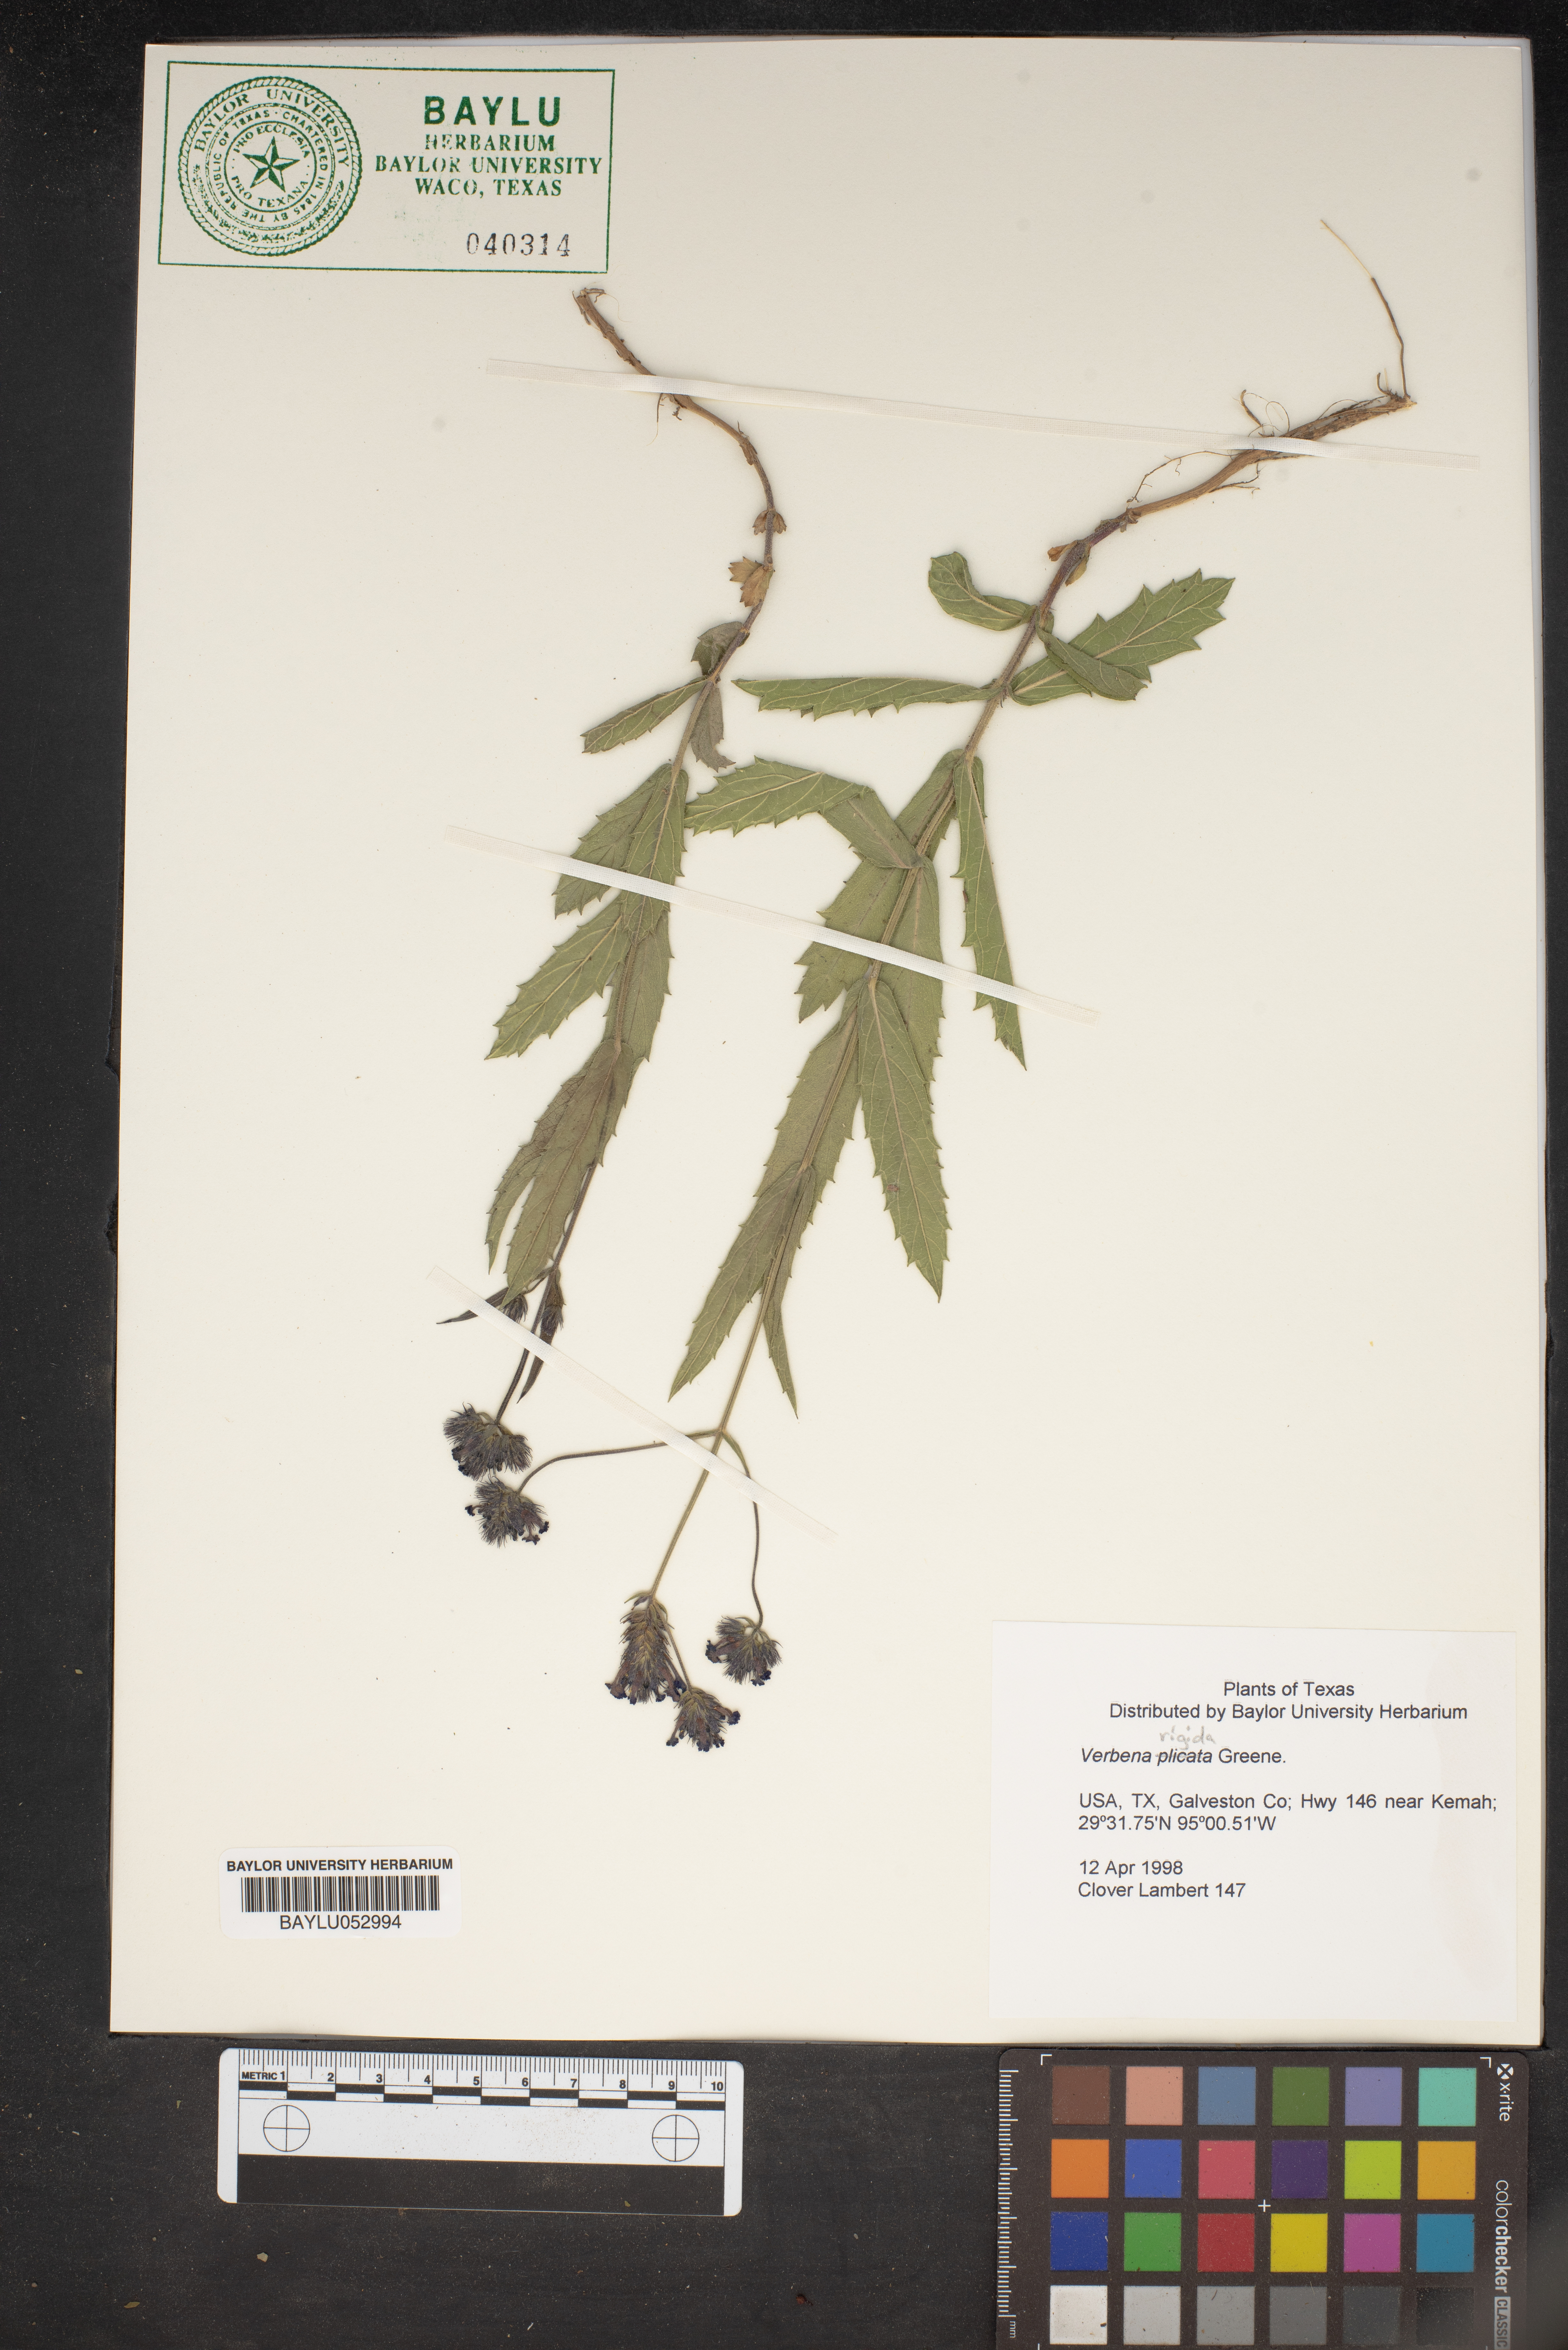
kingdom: Plantae
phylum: Tracheophyta
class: Magnoliopsida
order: Lamiales
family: Verbenaceae
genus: Verbena
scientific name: Verbena plicata
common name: Fan-leaf vervain
